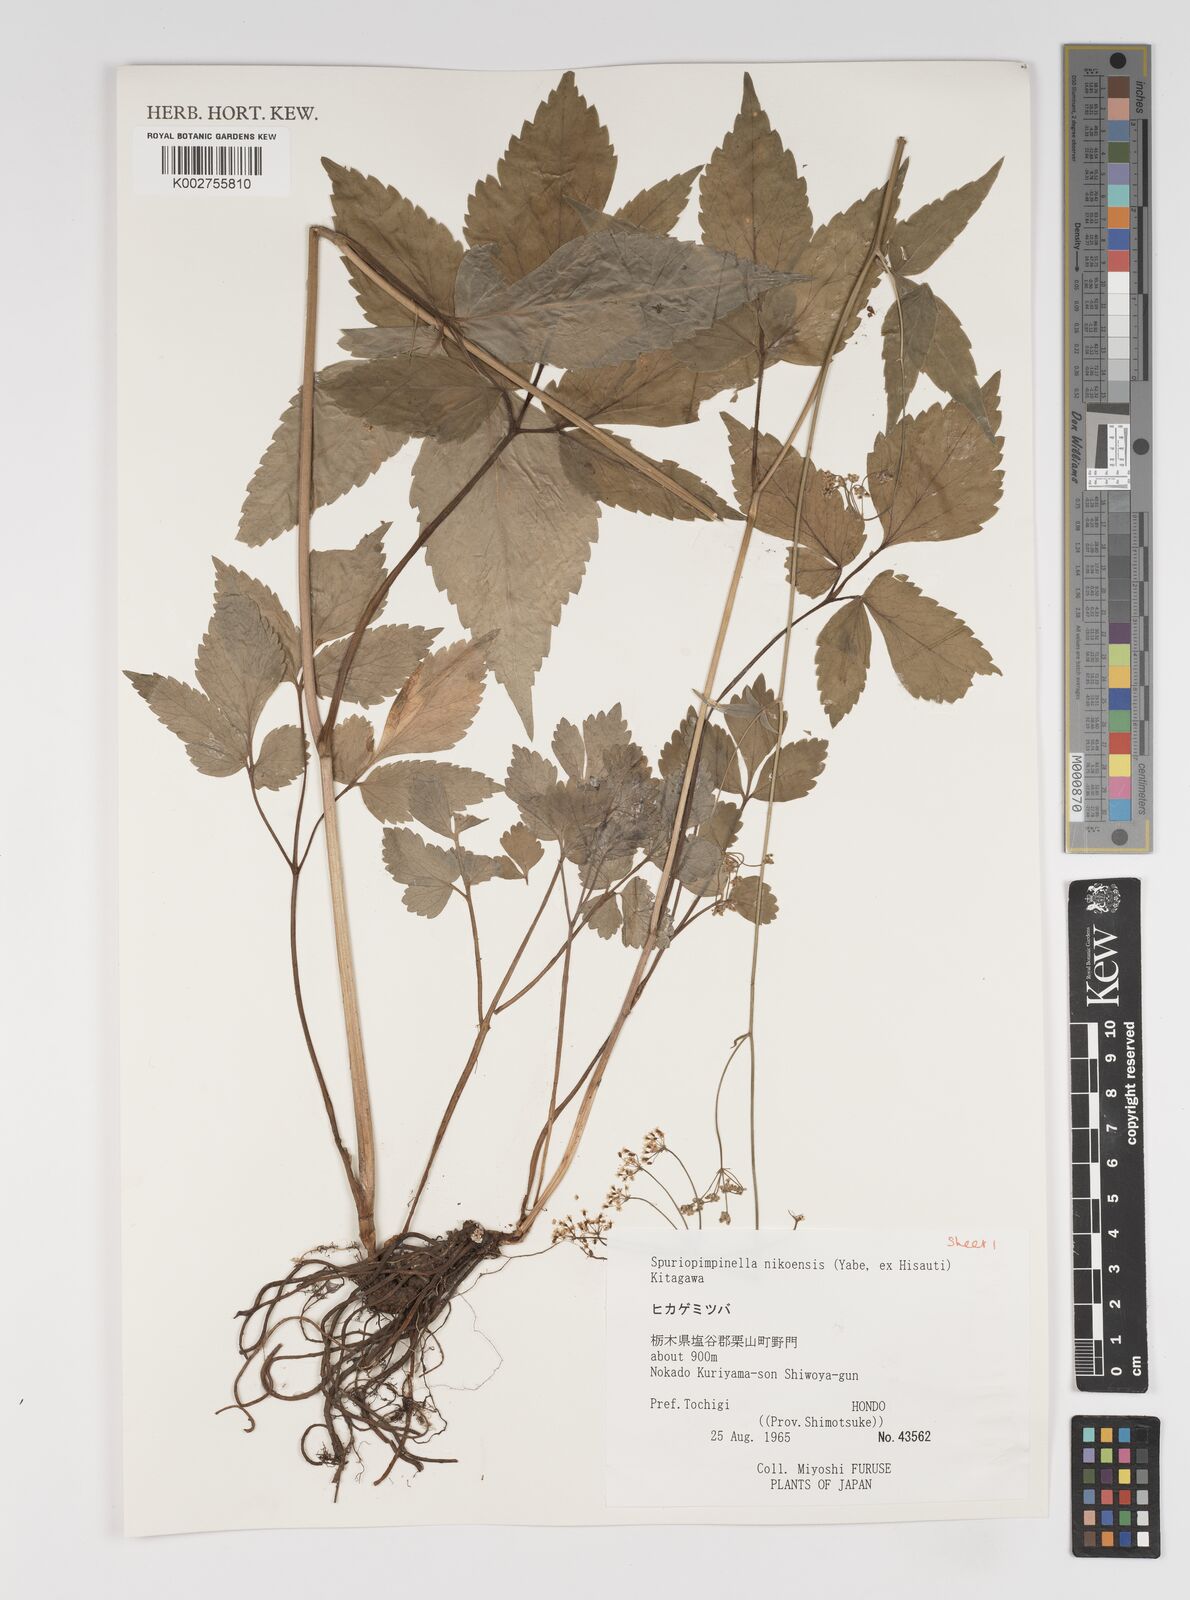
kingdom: Plantae
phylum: Tracheophyta
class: Magnoliopsida
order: Apiales
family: Apiaceae
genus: Spuriopimpinella
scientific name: Spuriopimpinella brachycarpa
